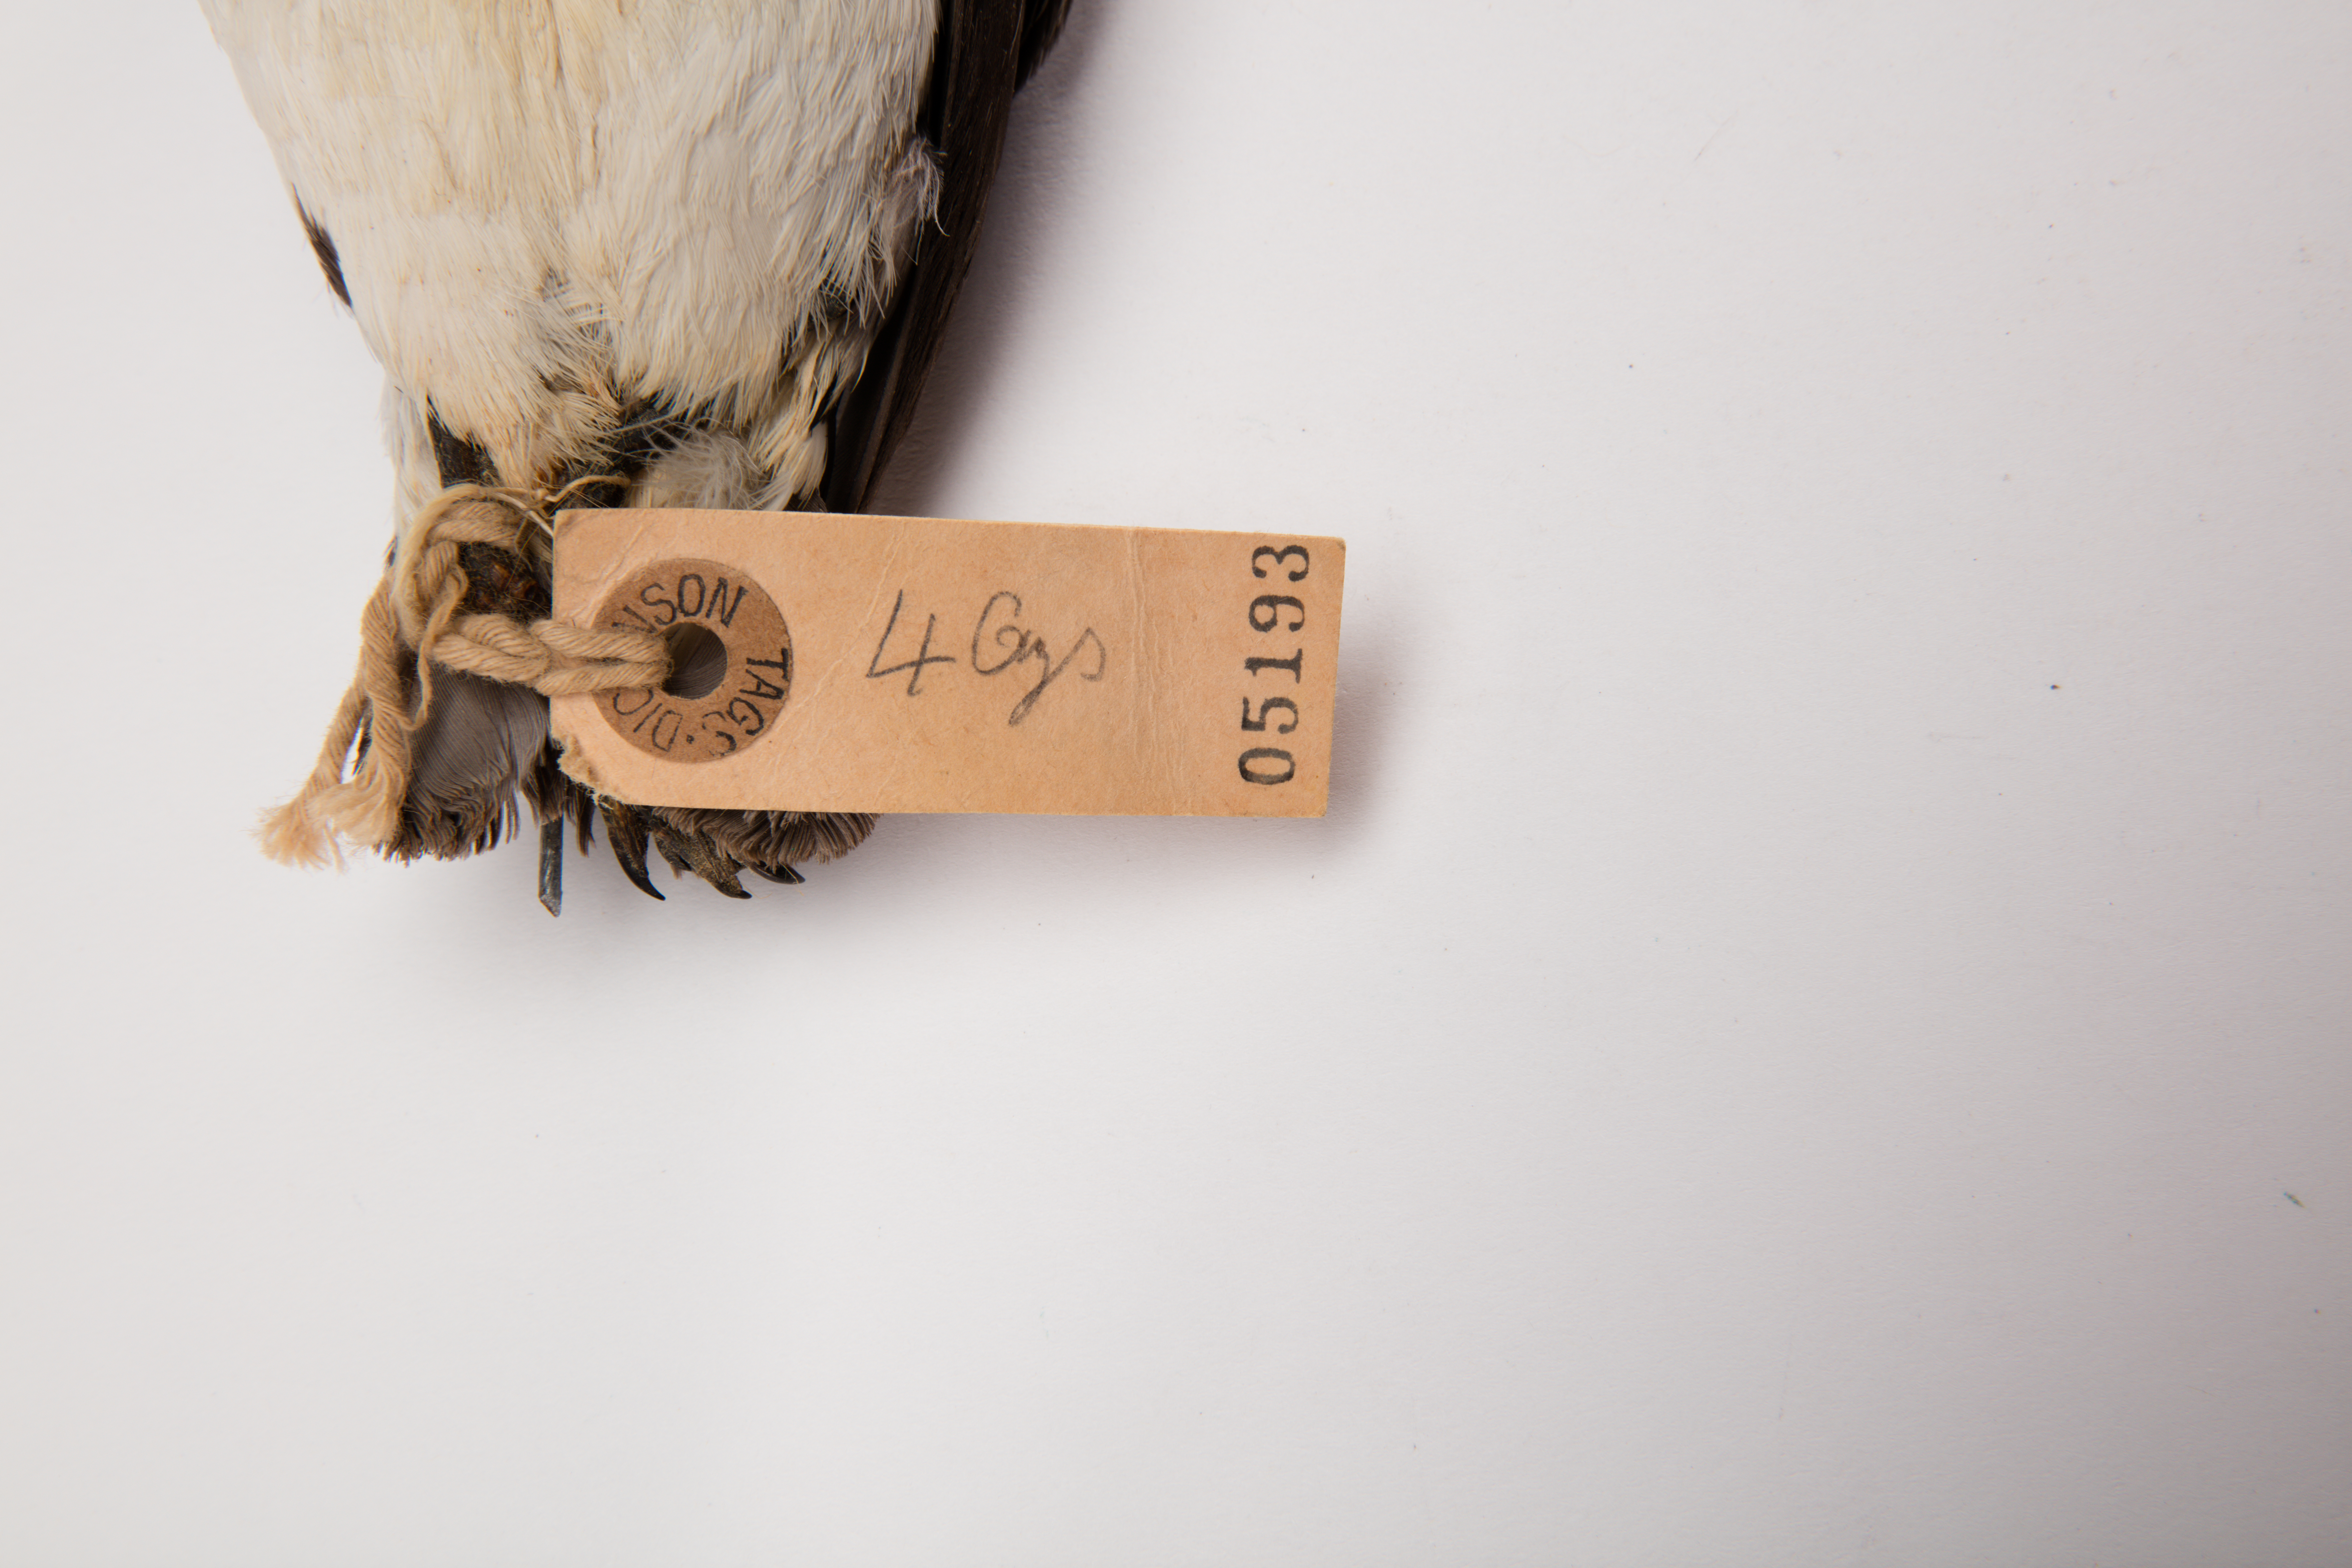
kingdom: Animalia
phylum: Chordata
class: Aves
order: Procellariiformes
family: Pelecanoididae
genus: Pelecanoides
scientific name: Pelecanoides urinatrix
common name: Common diving-petrel
